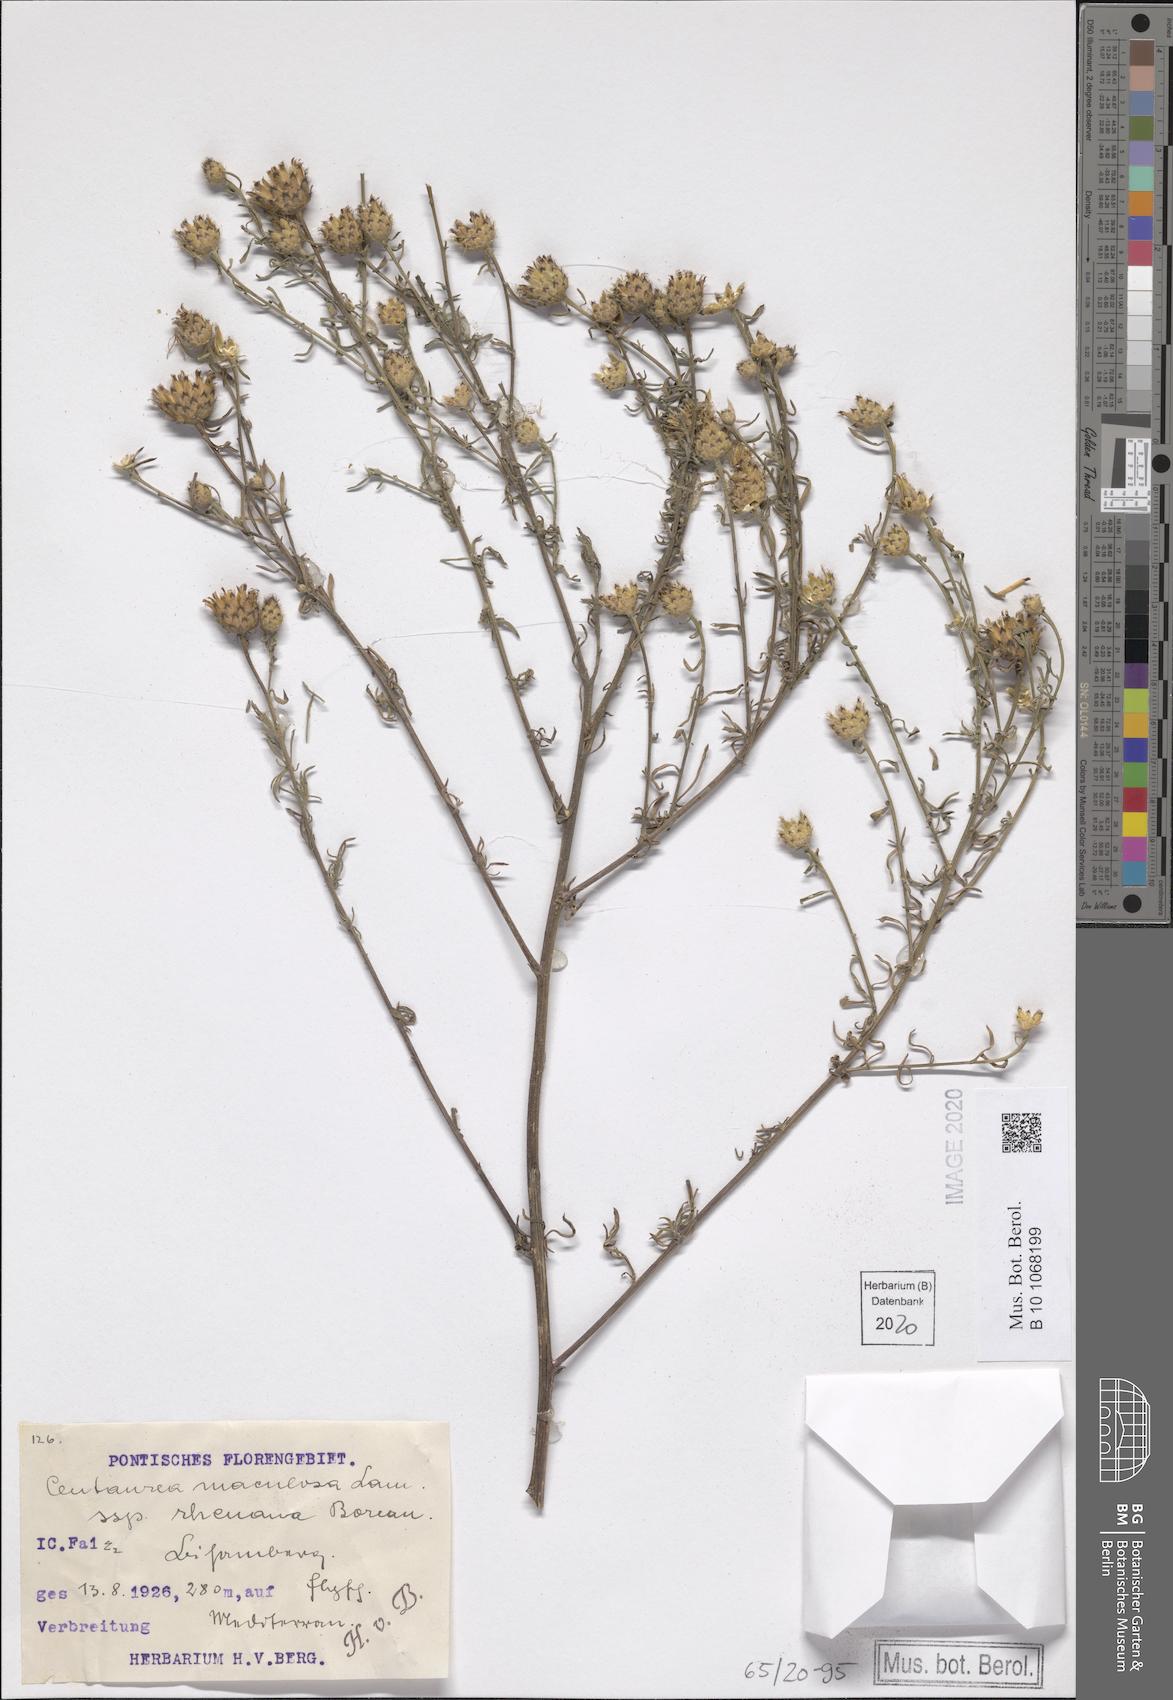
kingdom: Plantae
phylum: Tracheophyta
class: Magnoliopsida
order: Asterales
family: Asteraceae
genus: Centaurea
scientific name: Centaurea stoebe
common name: Spotted knapweed
